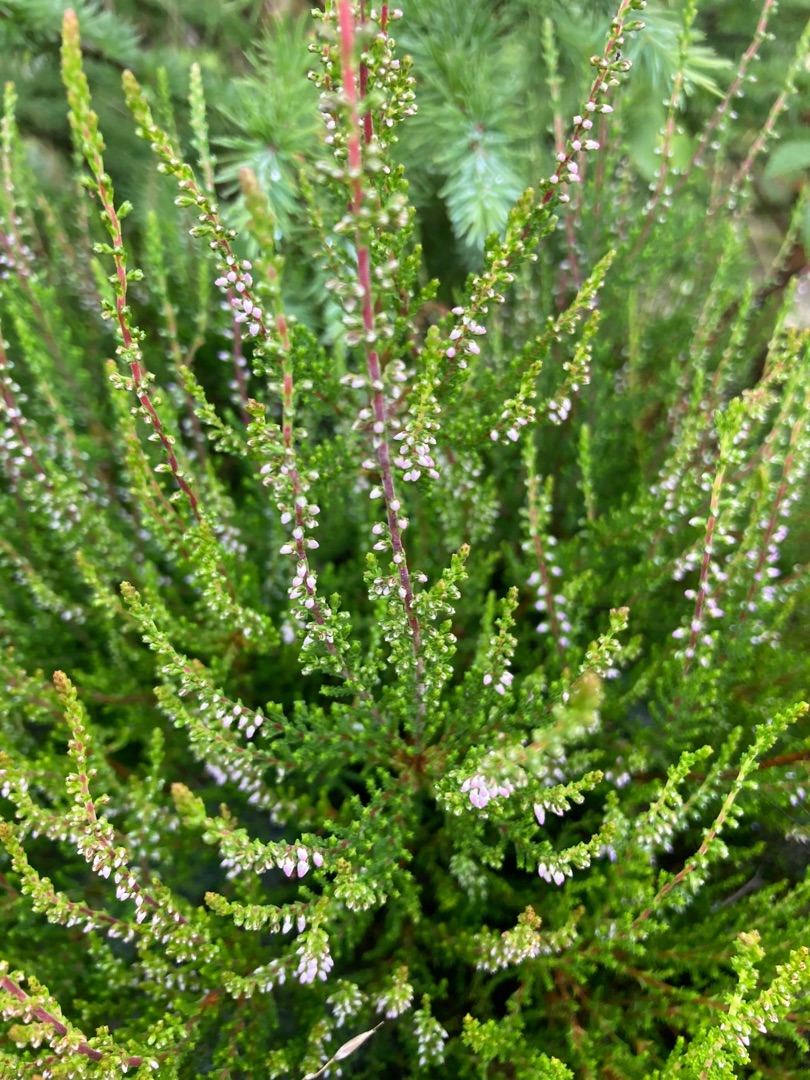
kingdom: Plantae
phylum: Tracheophyta
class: Magnoliopsida
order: Ericales
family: Ericaceae
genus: Calluna
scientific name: Calluna vulgaris
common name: Hedelyng
